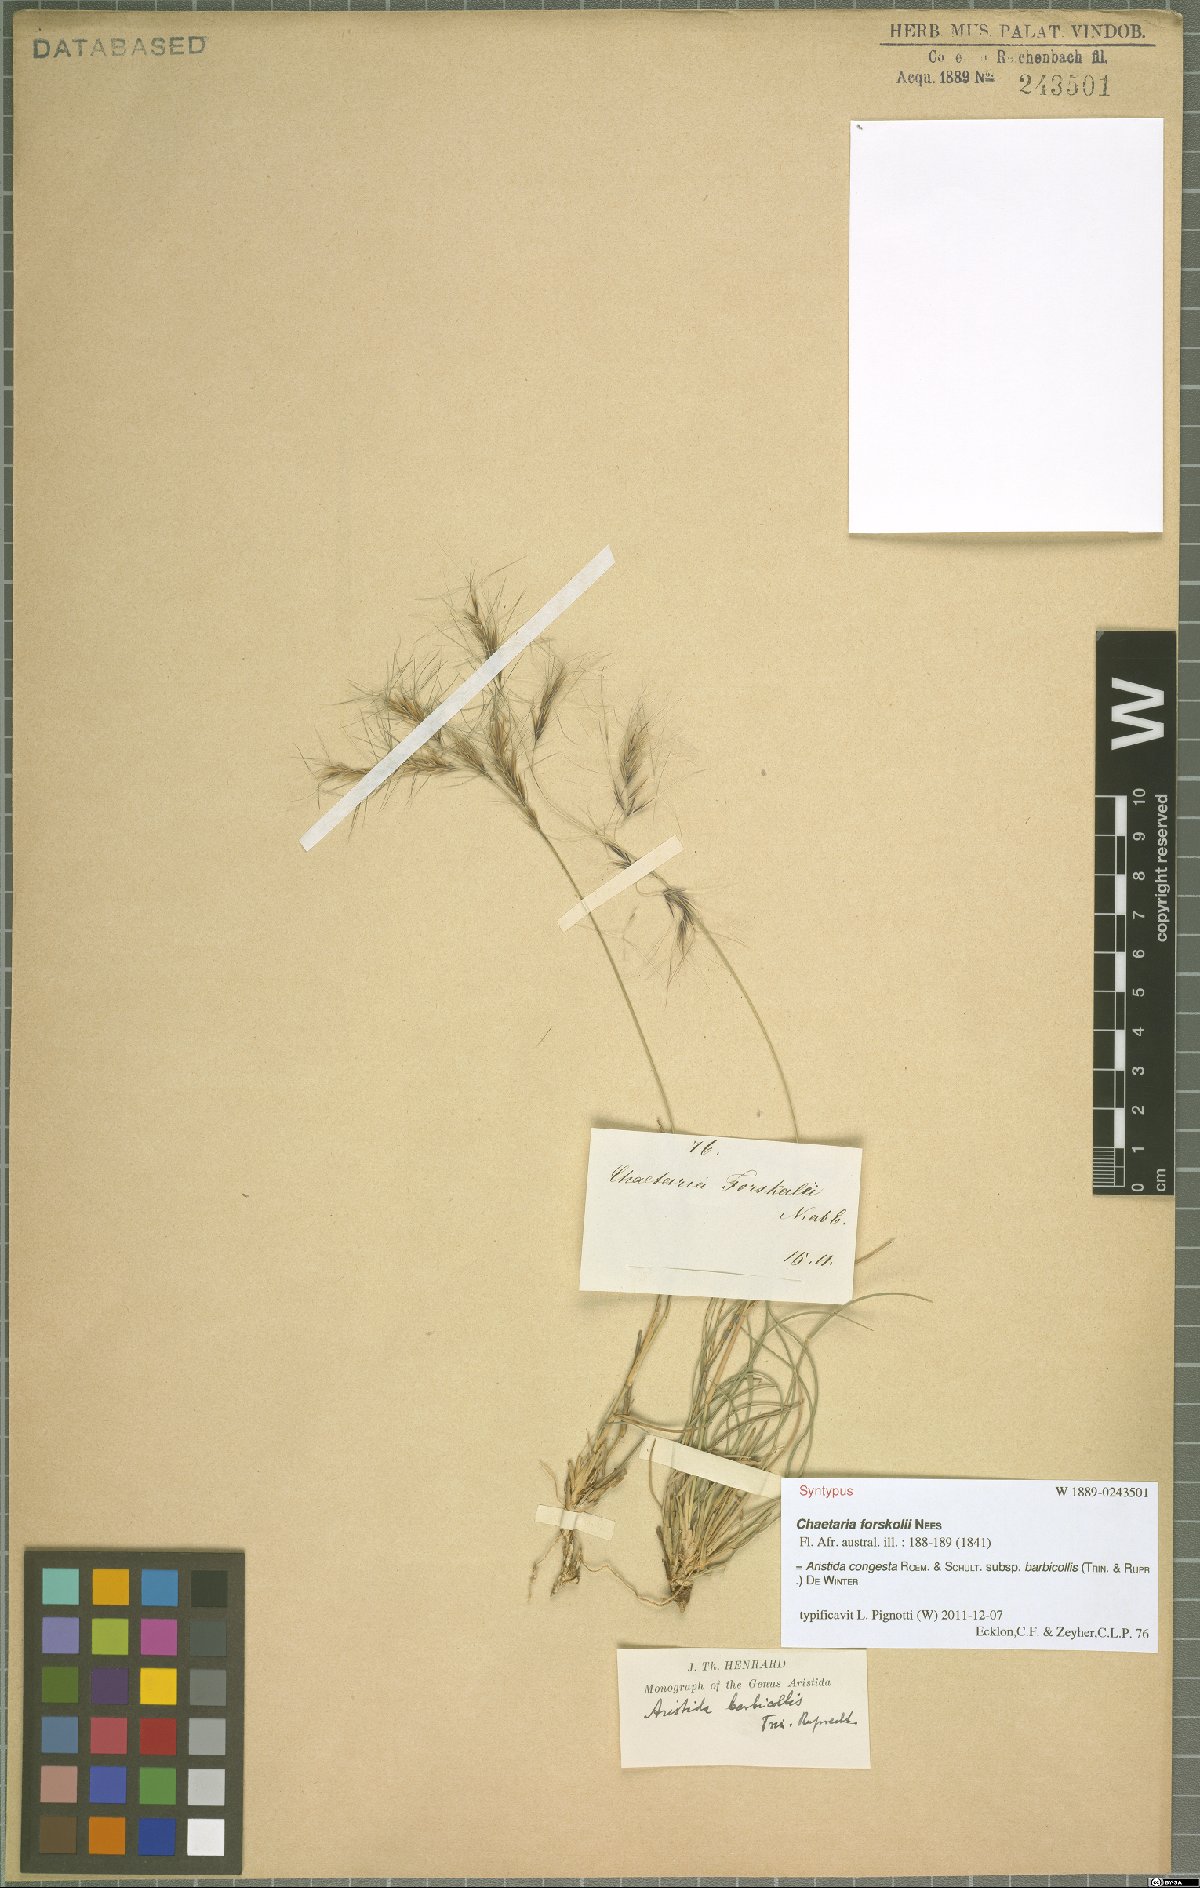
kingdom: Plantae
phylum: Tracheophyta
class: Liliopsida
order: Poales
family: Poaceae
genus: Aristida
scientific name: Aristida barbicollis
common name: Spreading prickle grass
